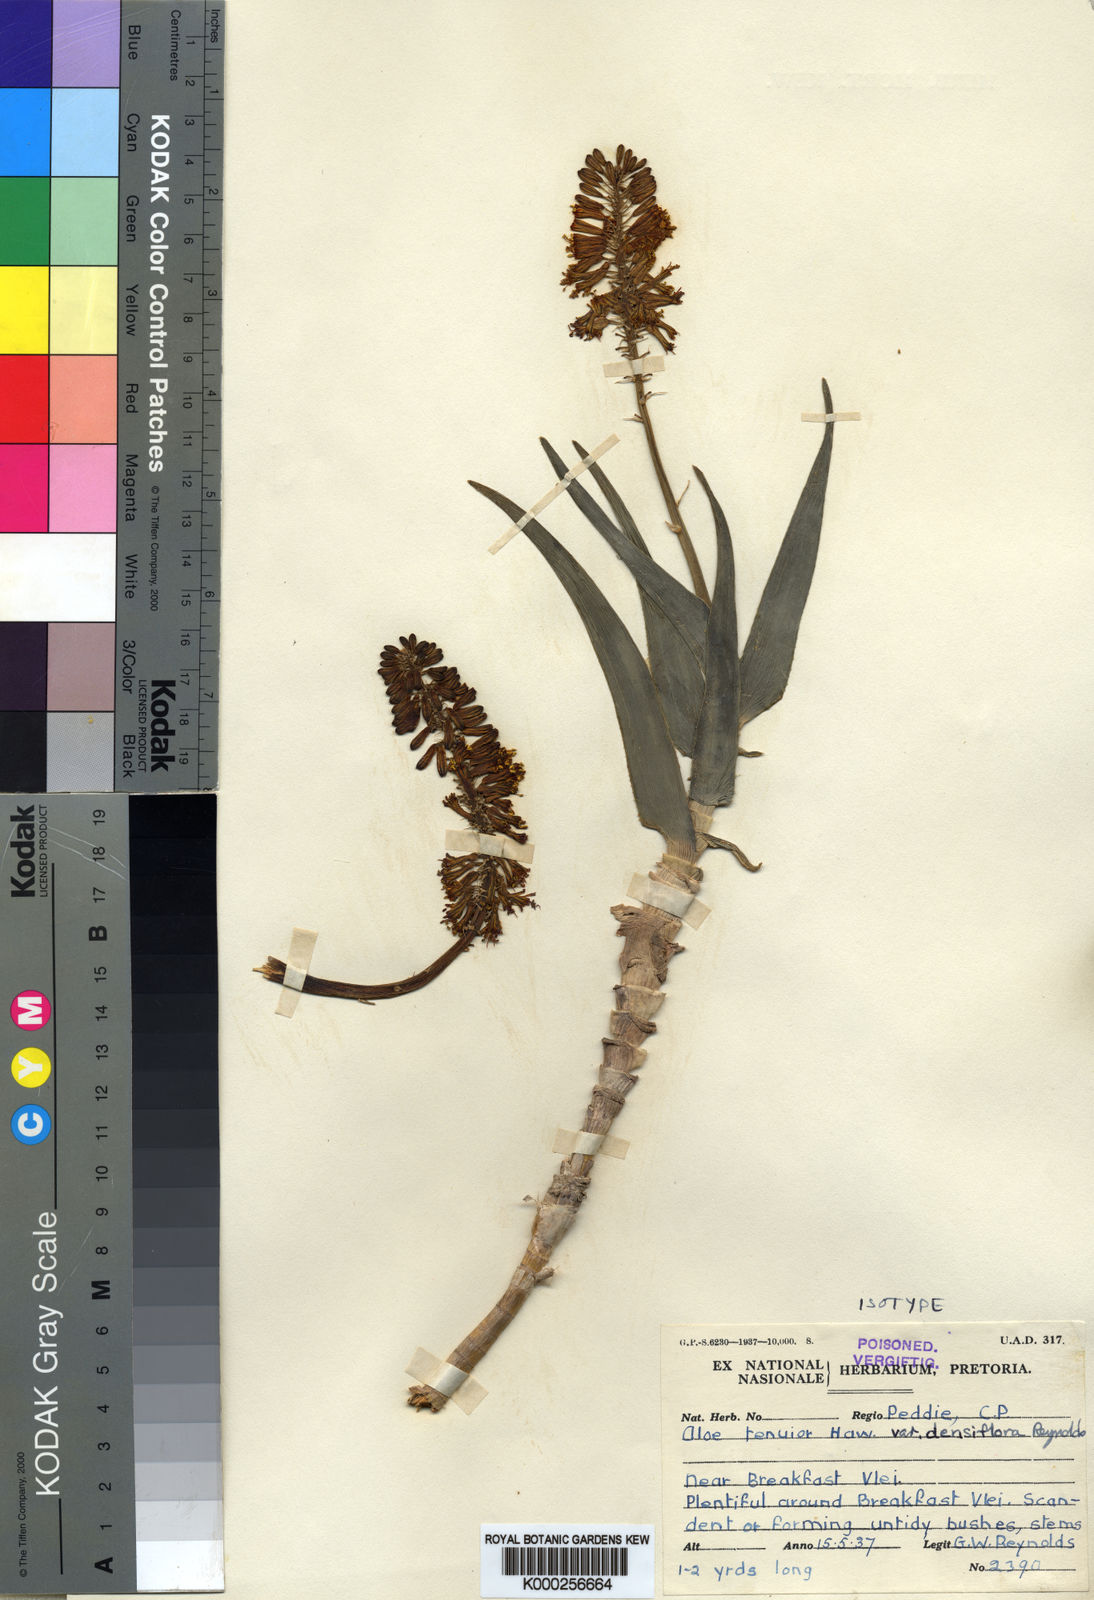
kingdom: Plantae
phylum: Tracheophyta
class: Liliopsida
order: Asparagales
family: Asphodelaceae
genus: Aloiampelos
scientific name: Aloiampelos tenuior
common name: Fence aloe
